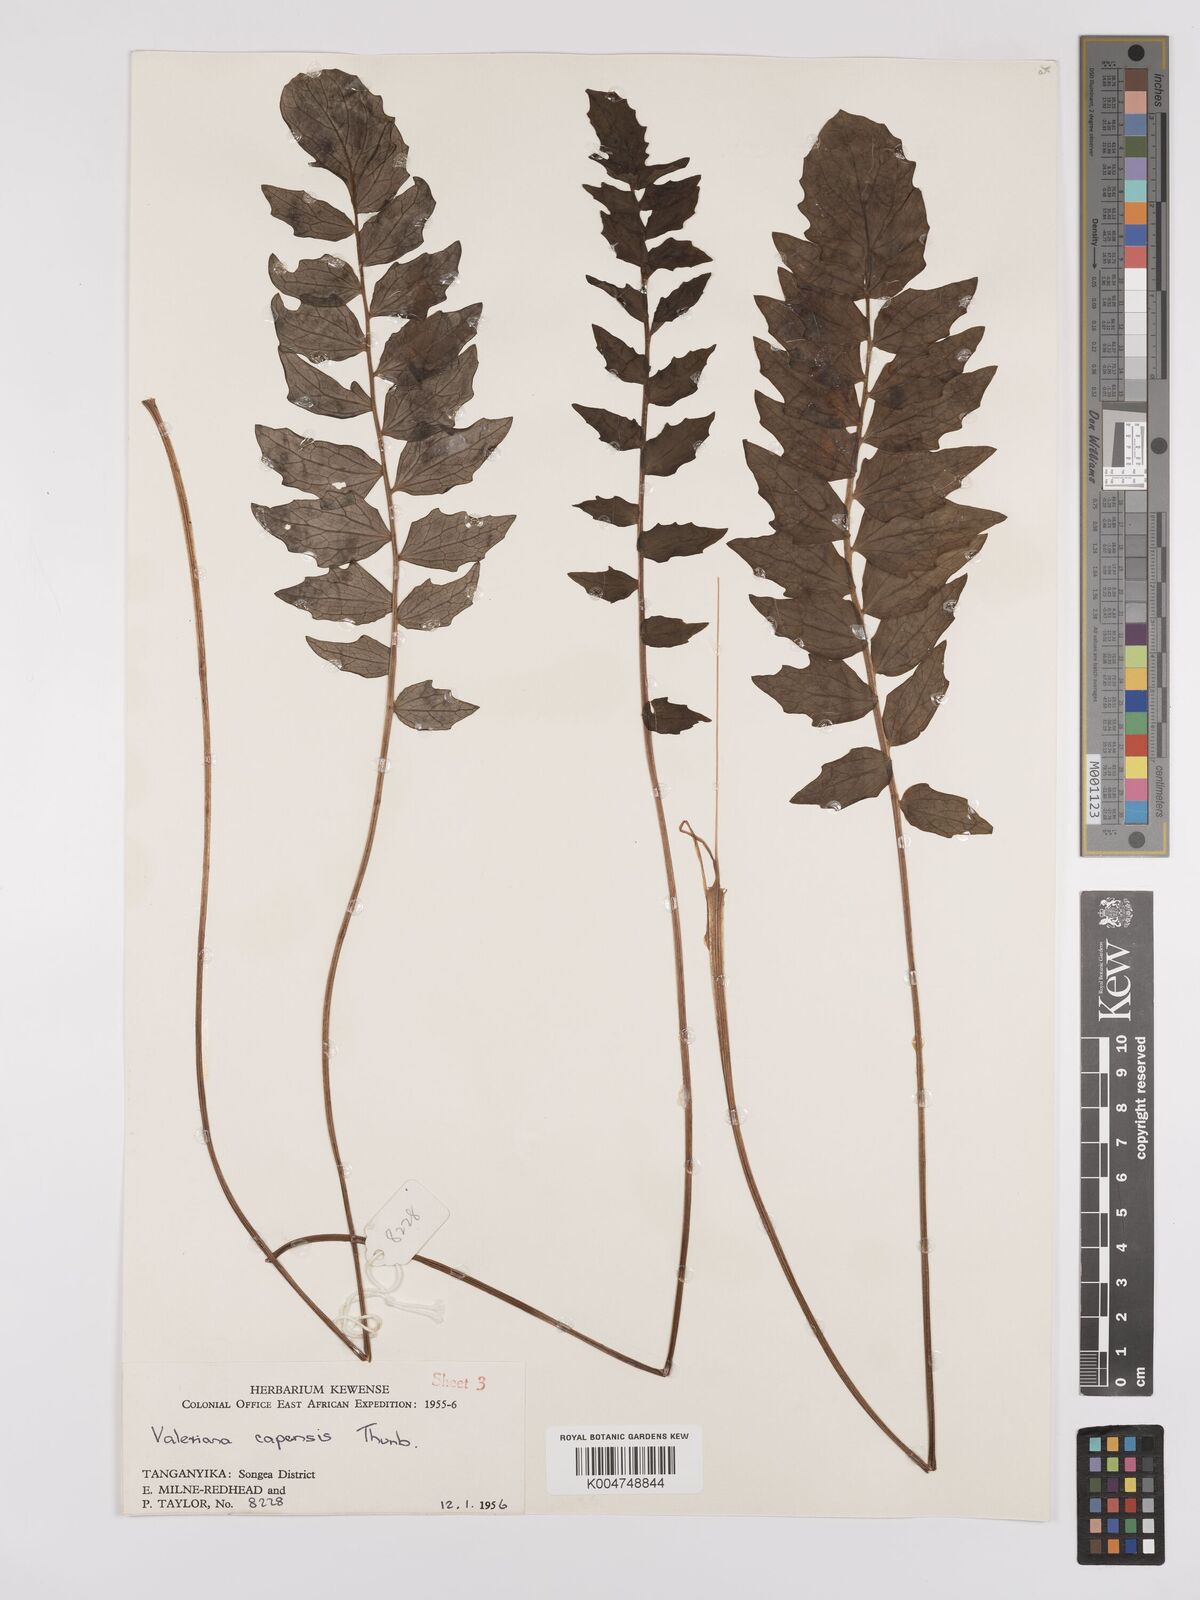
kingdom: Plantae
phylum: Tracheophyta
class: Magnoliopsida
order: Dipsacales
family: Caprifoliaceae
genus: Valeriana
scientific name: Valeriana capensis
